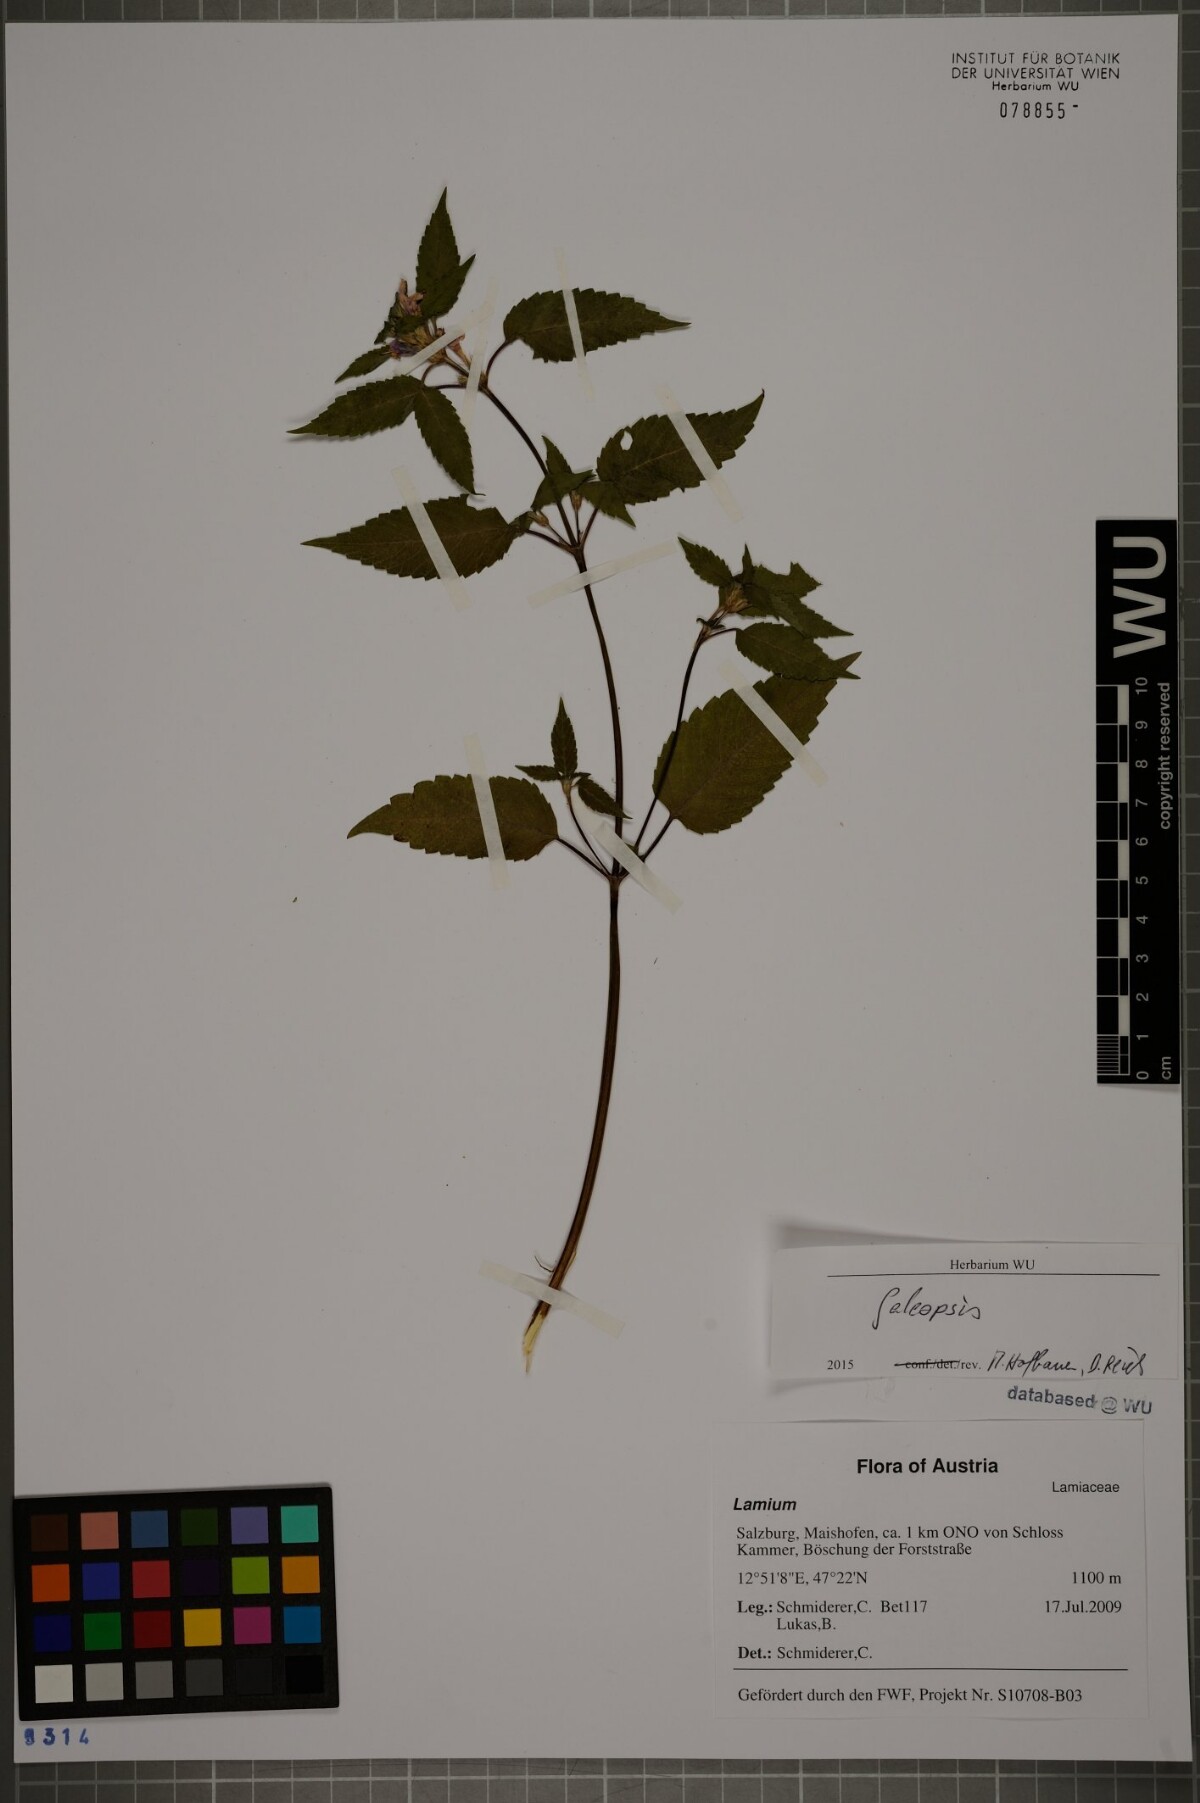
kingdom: Plantae
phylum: Tracheophyta
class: Magnoliopsida
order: Lamiales
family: Lamiaceae
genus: Galeopsis
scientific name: Galeopsis
